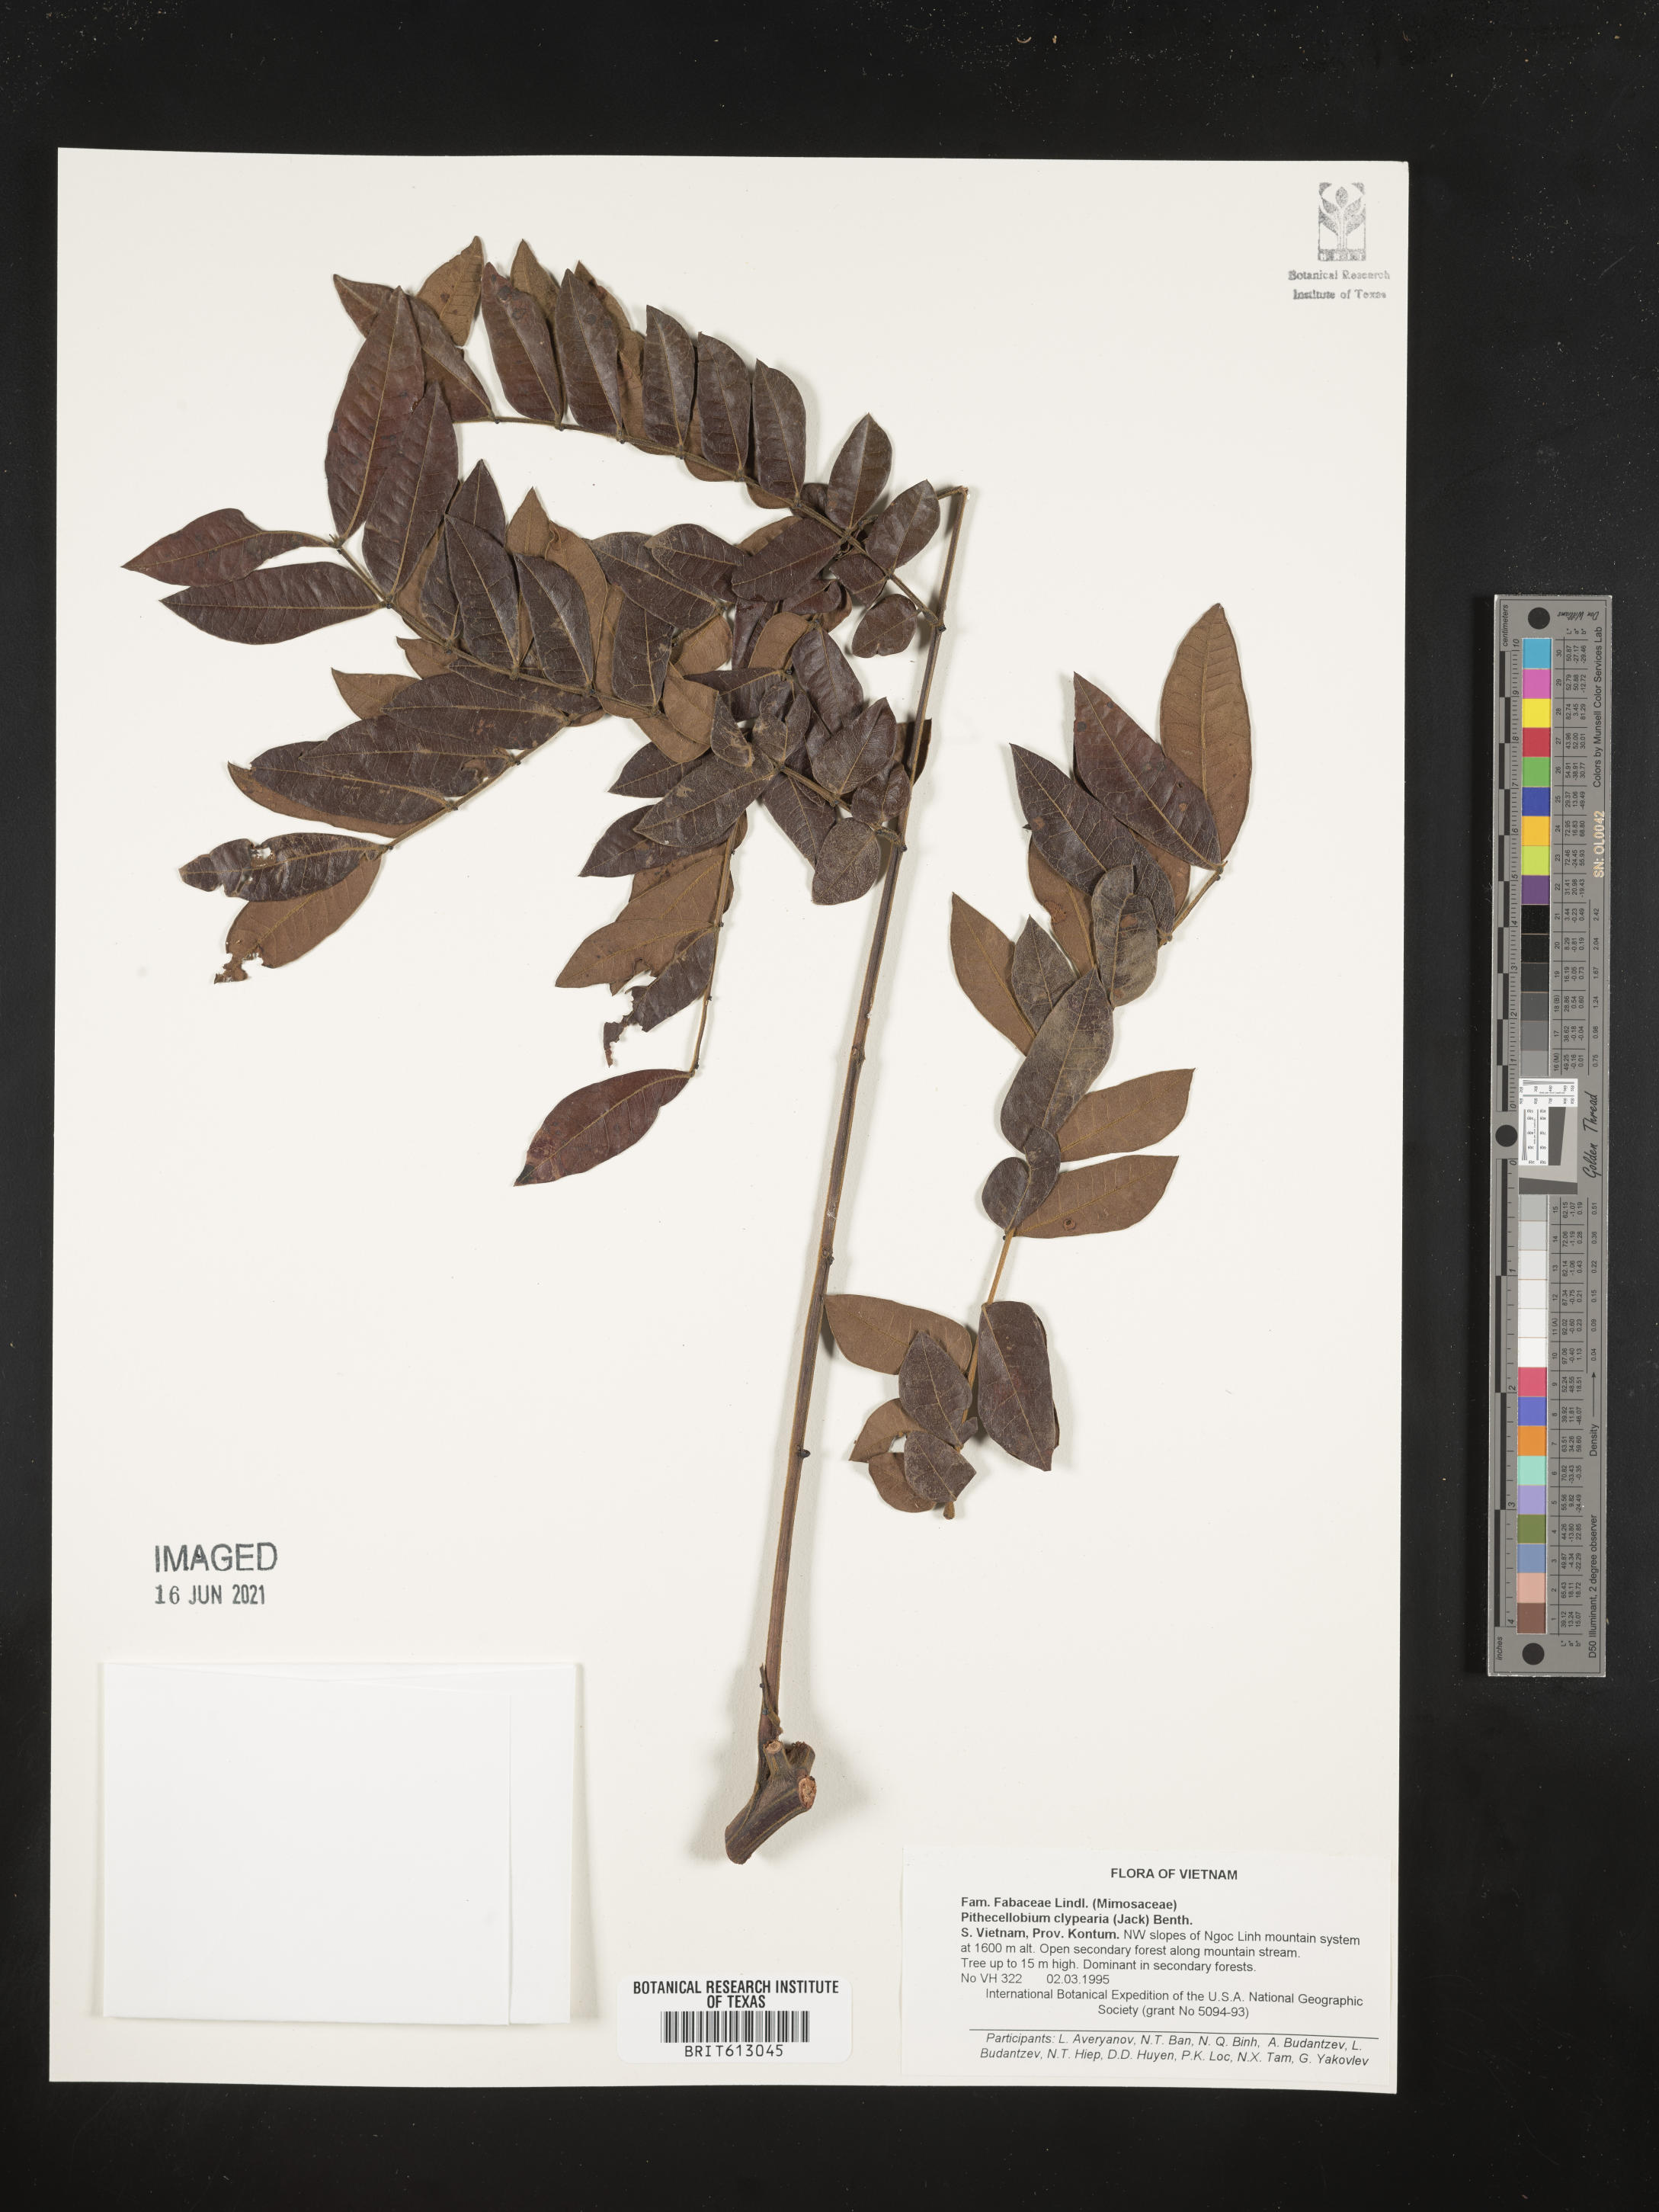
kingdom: Plantae
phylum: Tracheophyta
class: Magnoliopsida
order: Fabales
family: Fabaceae
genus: Archidendron
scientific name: Archidendron clypearia
